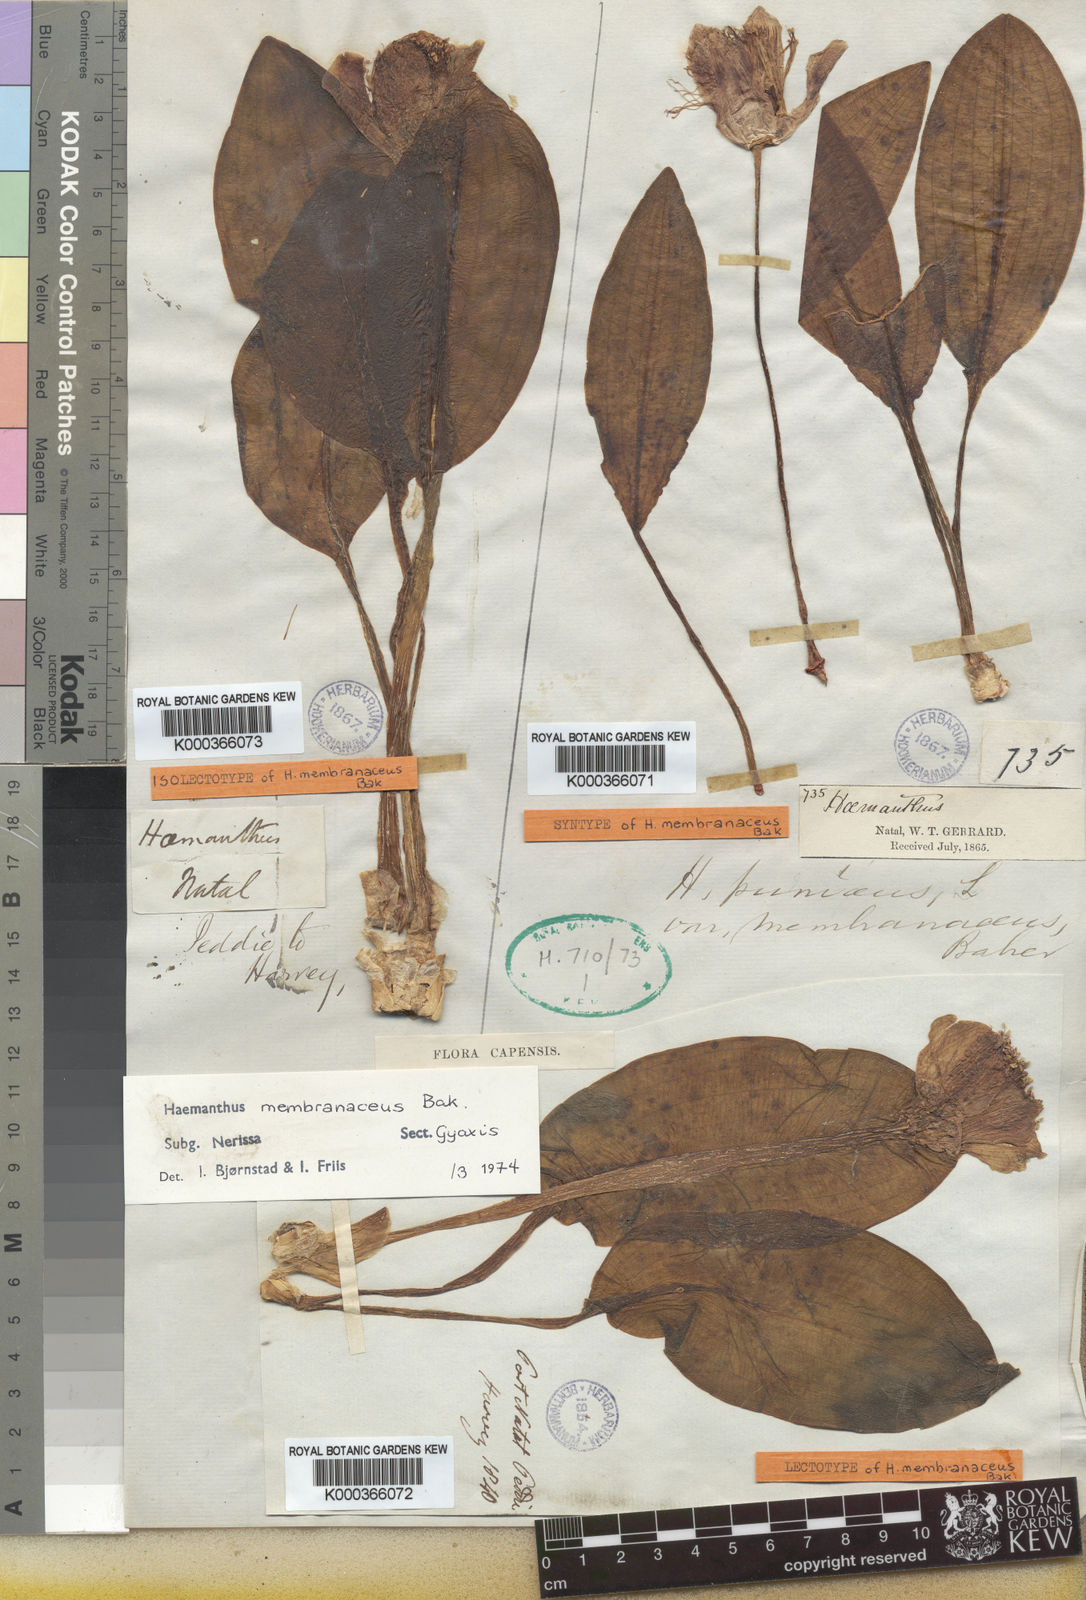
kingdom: Plantae
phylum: Tracheophyta
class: Liliopsida
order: Asparagales
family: Amaryllidaceae
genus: Scadoxus
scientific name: Scadoxus membranaceus
